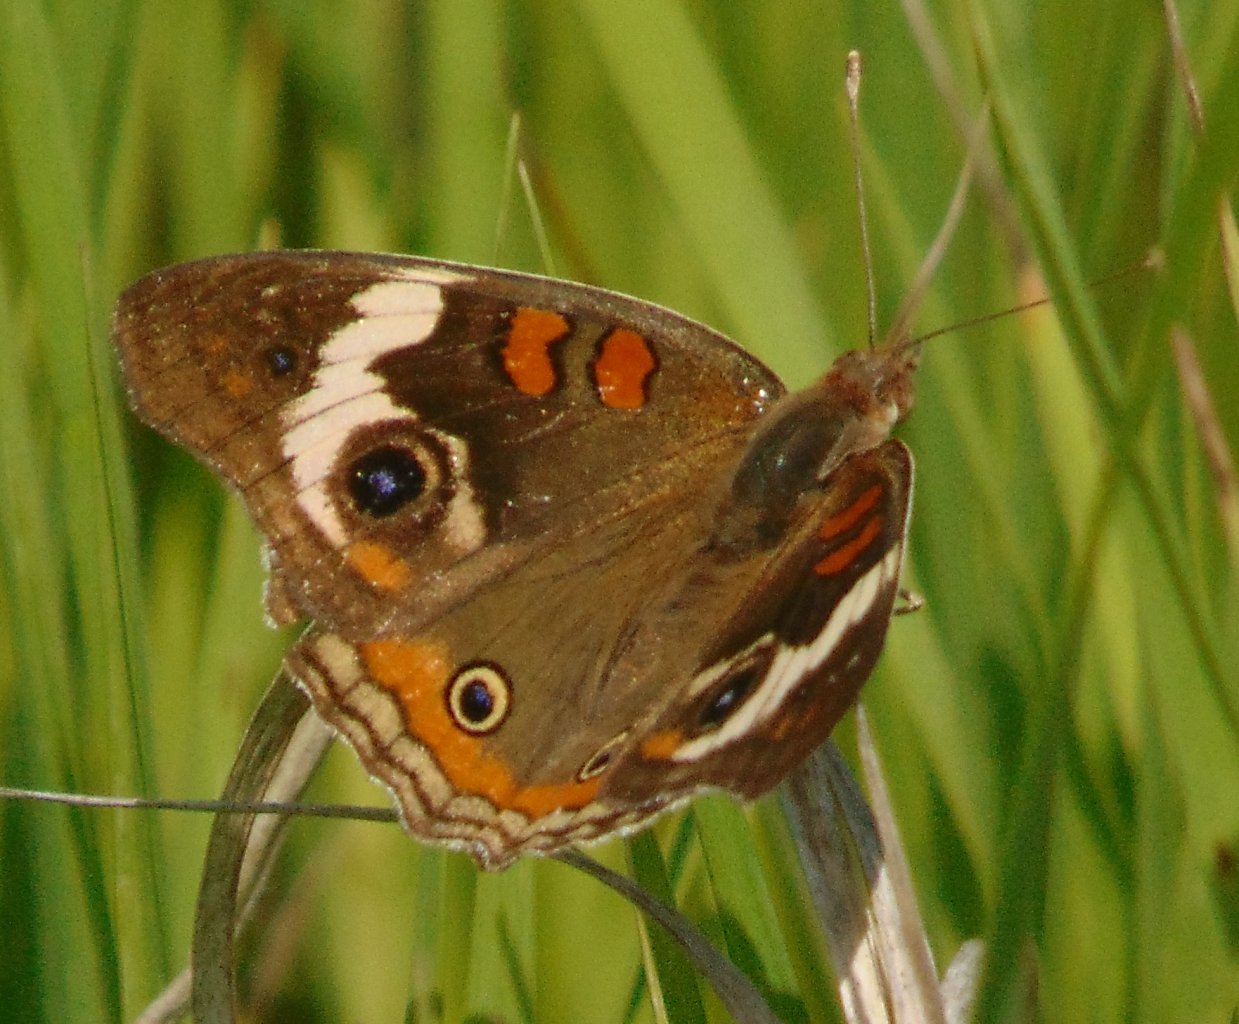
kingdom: Animalia
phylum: Arthropoda
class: Insecta
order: Lepidoptera
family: Nymphalidae
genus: Junonia
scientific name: Junonia coenia
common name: Common Buckeye
